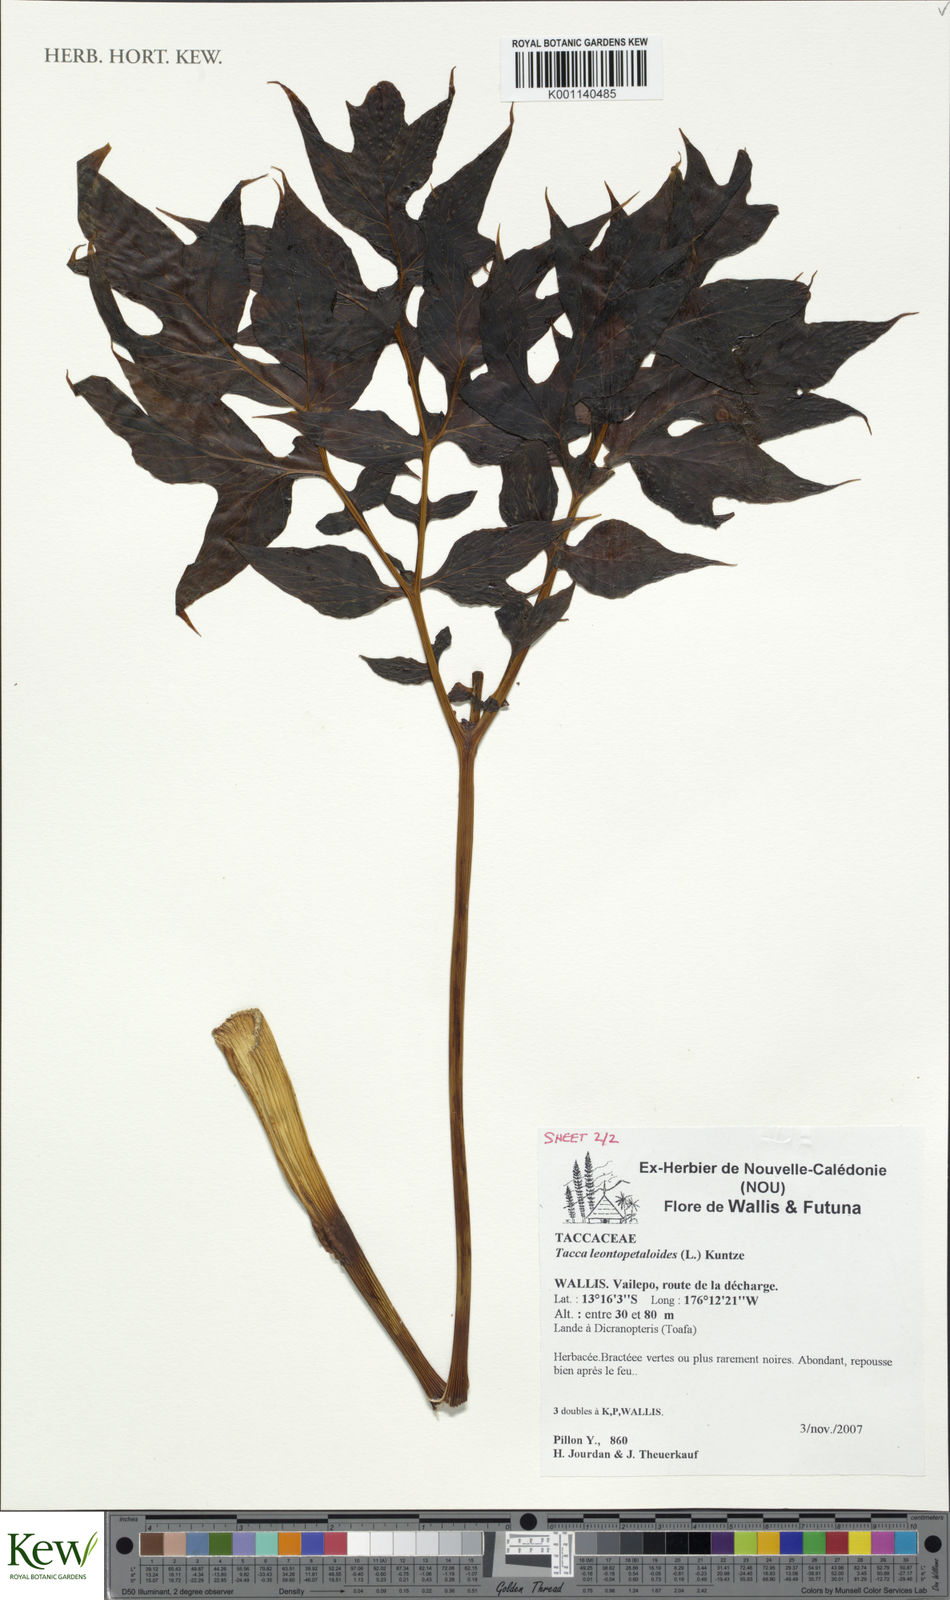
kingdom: Plantae
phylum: Tracheophyta
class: Liliopsida
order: Dioscoreales
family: Dioscoreaceae
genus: Tacca
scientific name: Tacca leontopetaloides
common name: Arrowroot
